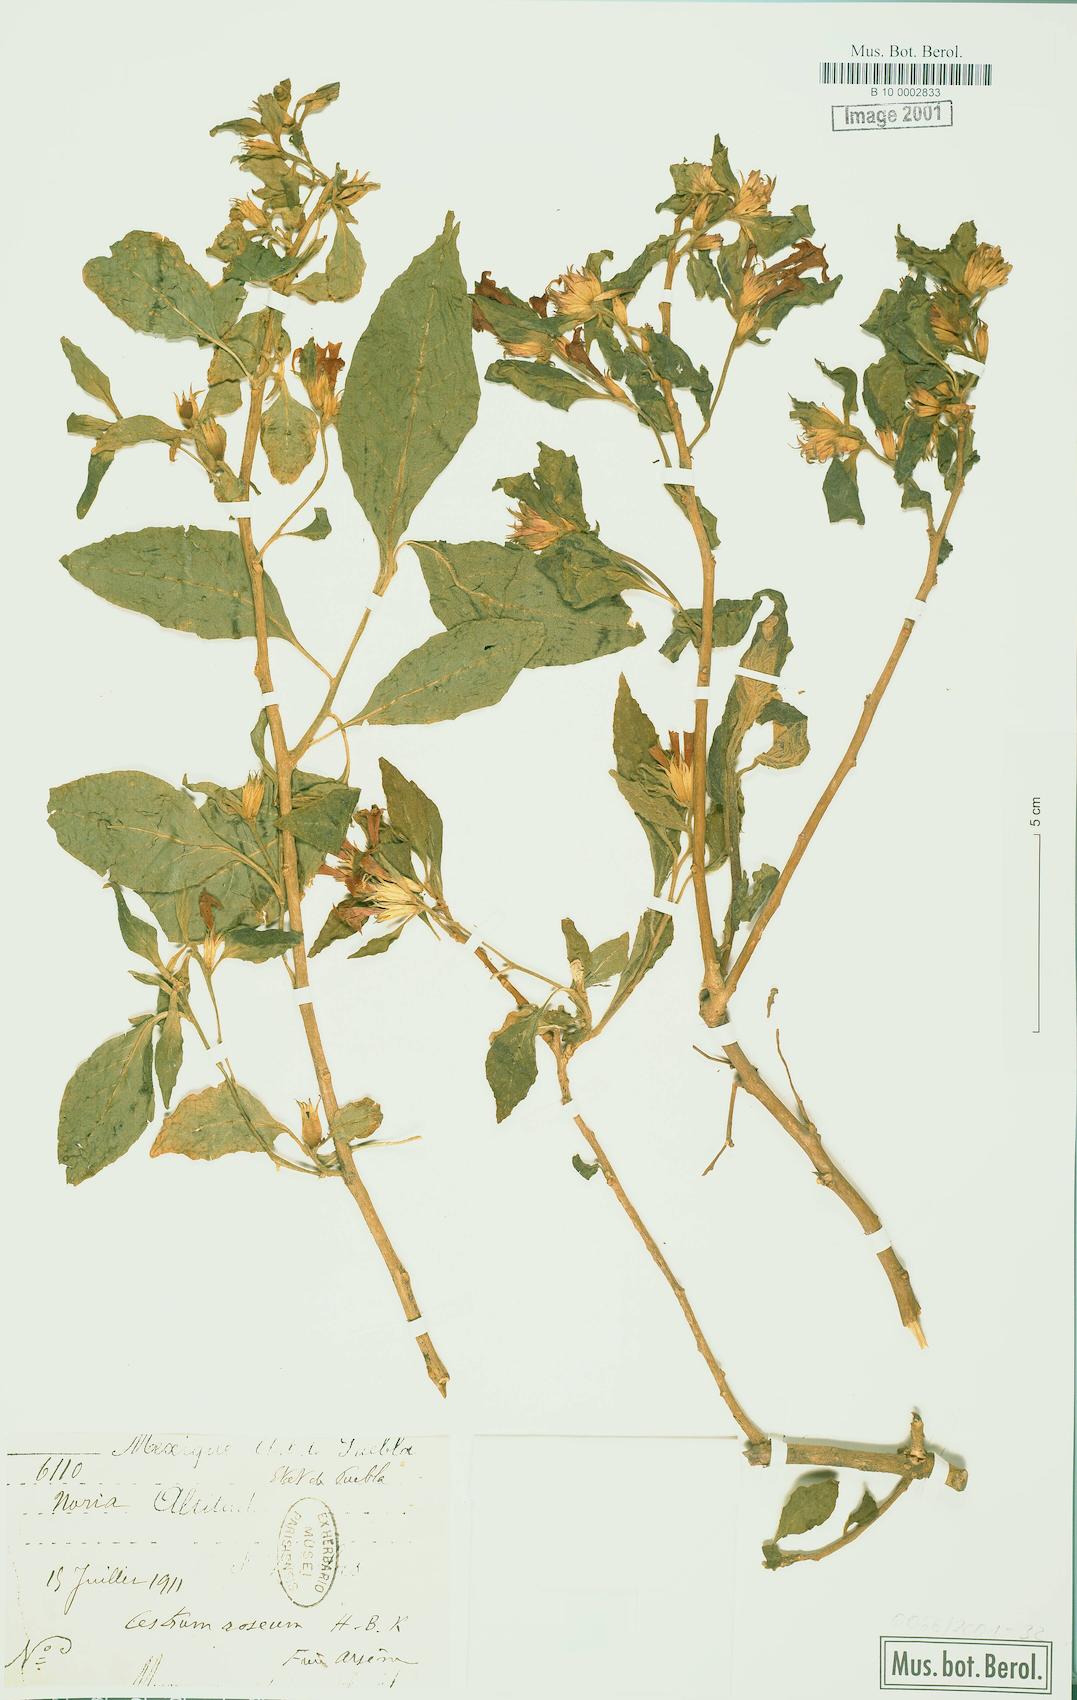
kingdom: Plantae
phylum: Tracheophyta
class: Magnoliopsida
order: Solanales
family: Solanaceae
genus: Cestrum
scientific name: Cestrum roseum
